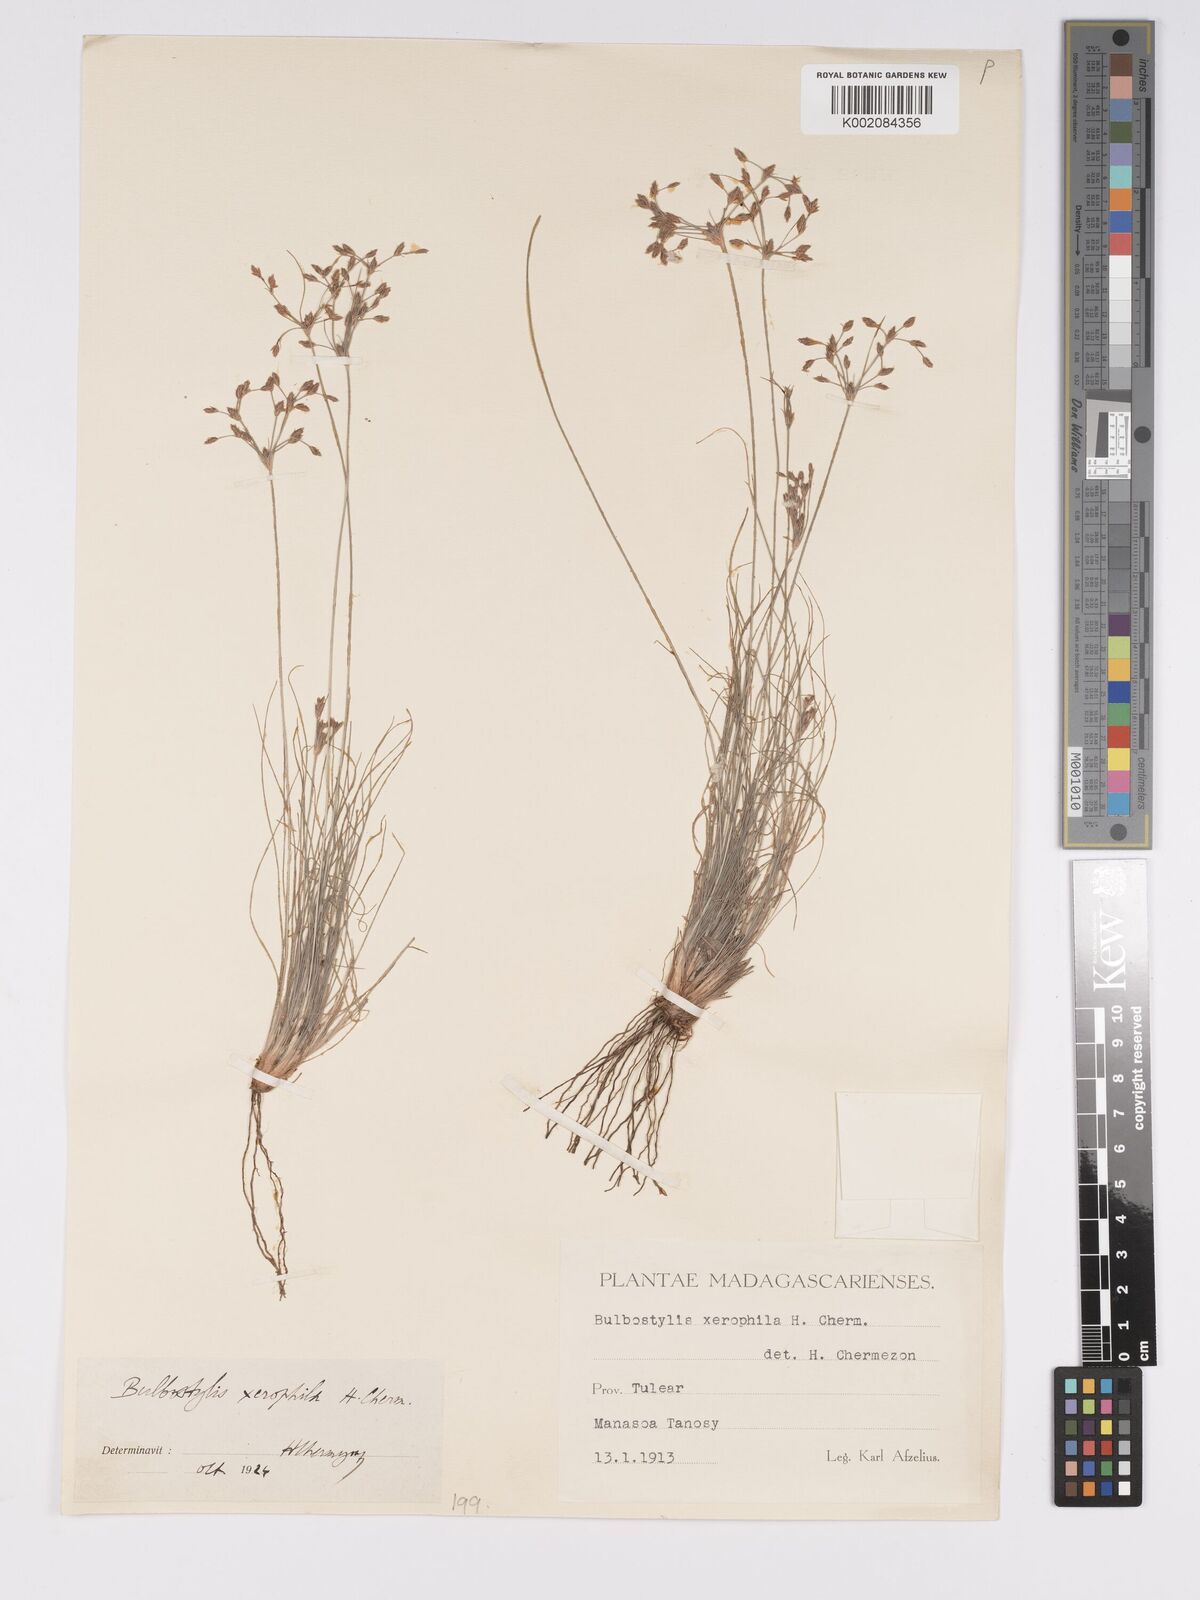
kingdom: Plantae
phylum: Tracheophyta
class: Liliopsida
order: Poales
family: Cyperaceae
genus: Bulbostylis
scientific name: Bulbostylis xerophila
